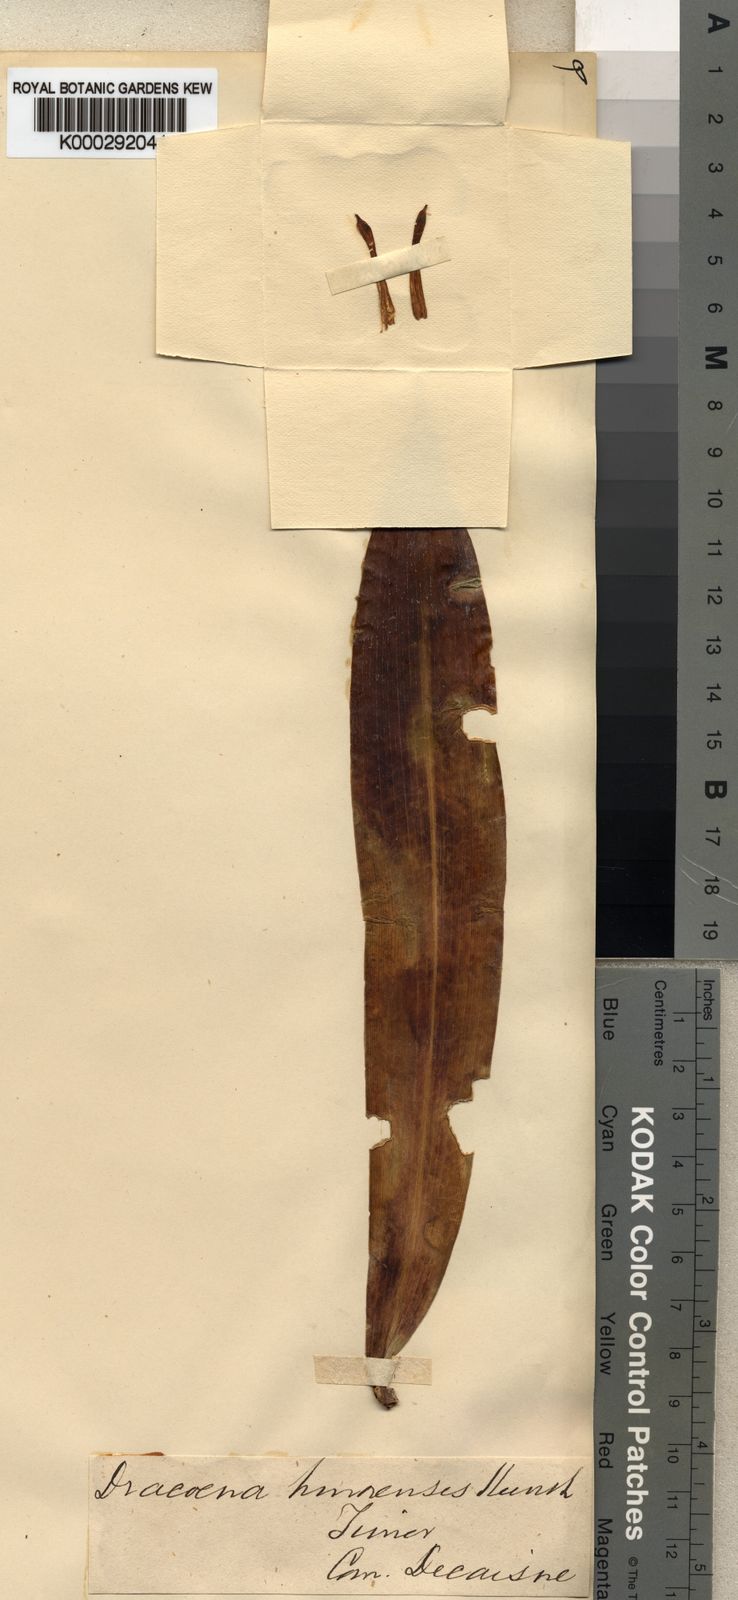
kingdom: Plantae
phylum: Tracheophyta
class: Liliopsida
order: Asparagales
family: Asparagaceae
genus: Dracaena
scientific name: Dracaena timorensis
